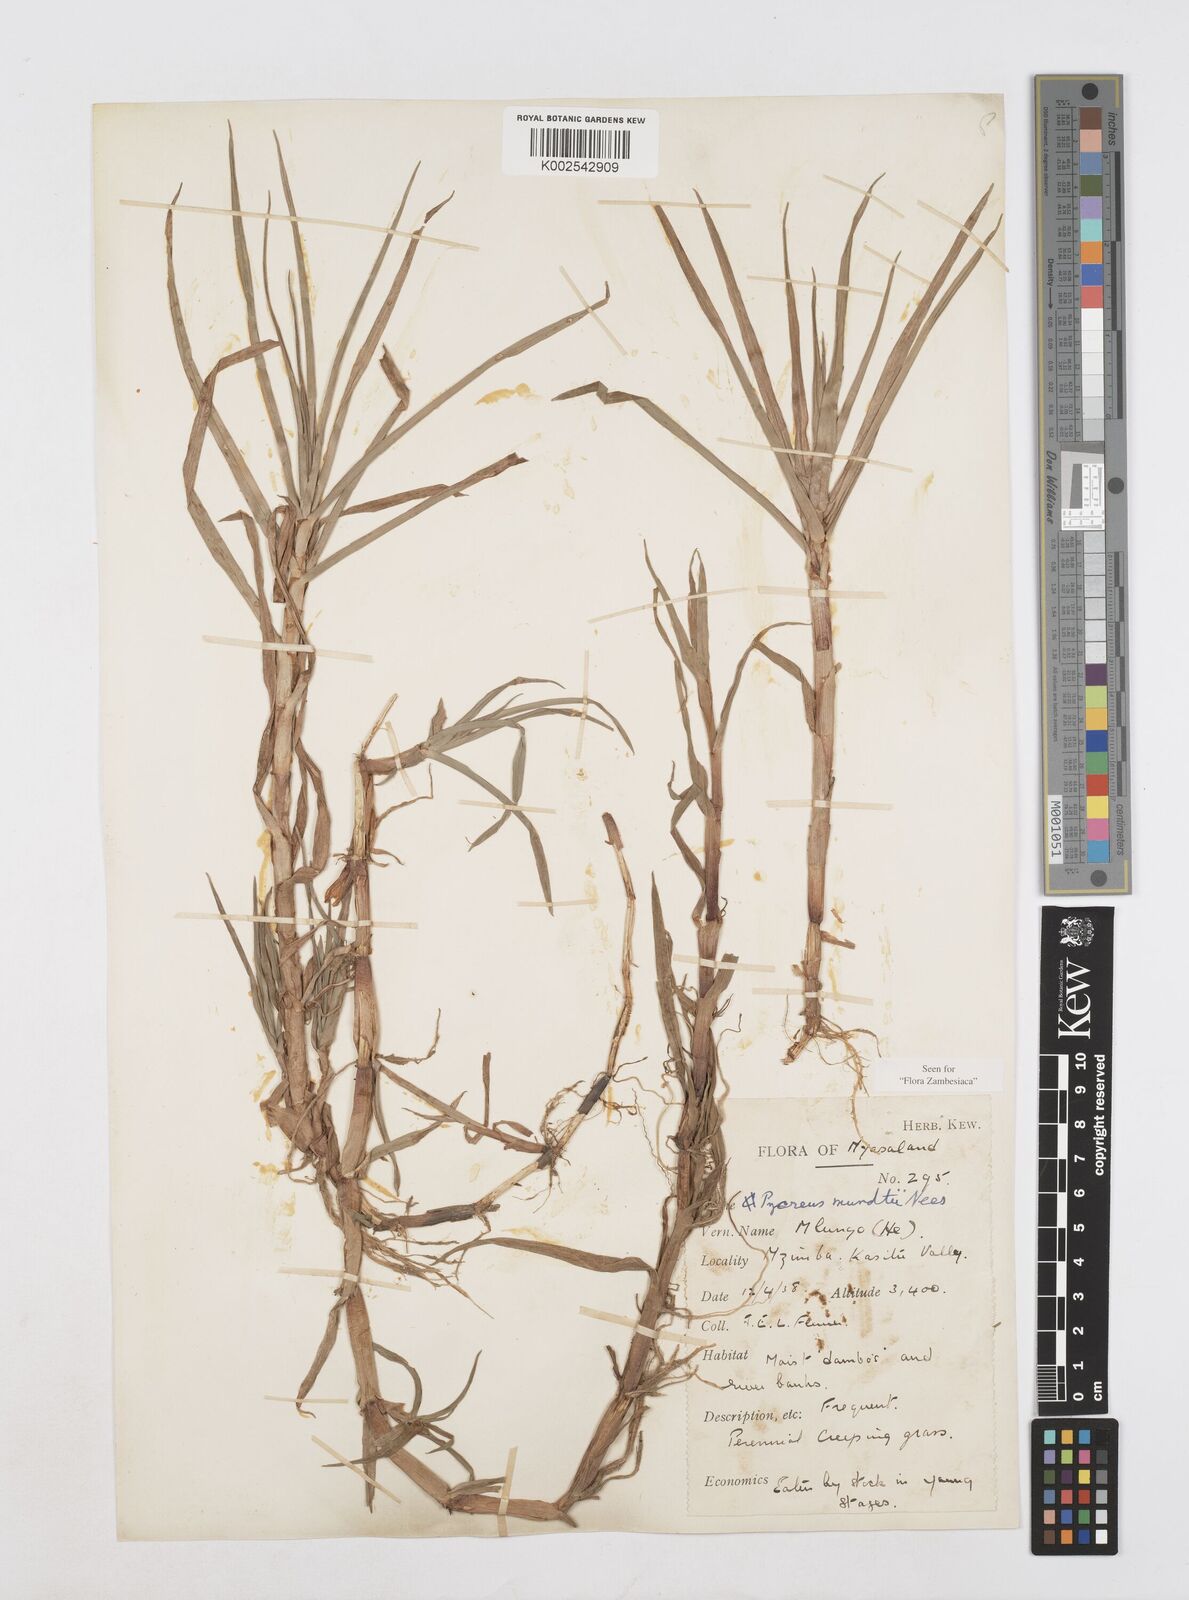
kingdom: Plantae
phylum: Tracheophyta
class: Liliopsida
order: Poales
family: Cyperaceae
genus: Cyperus
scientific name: Cyperus mundii
